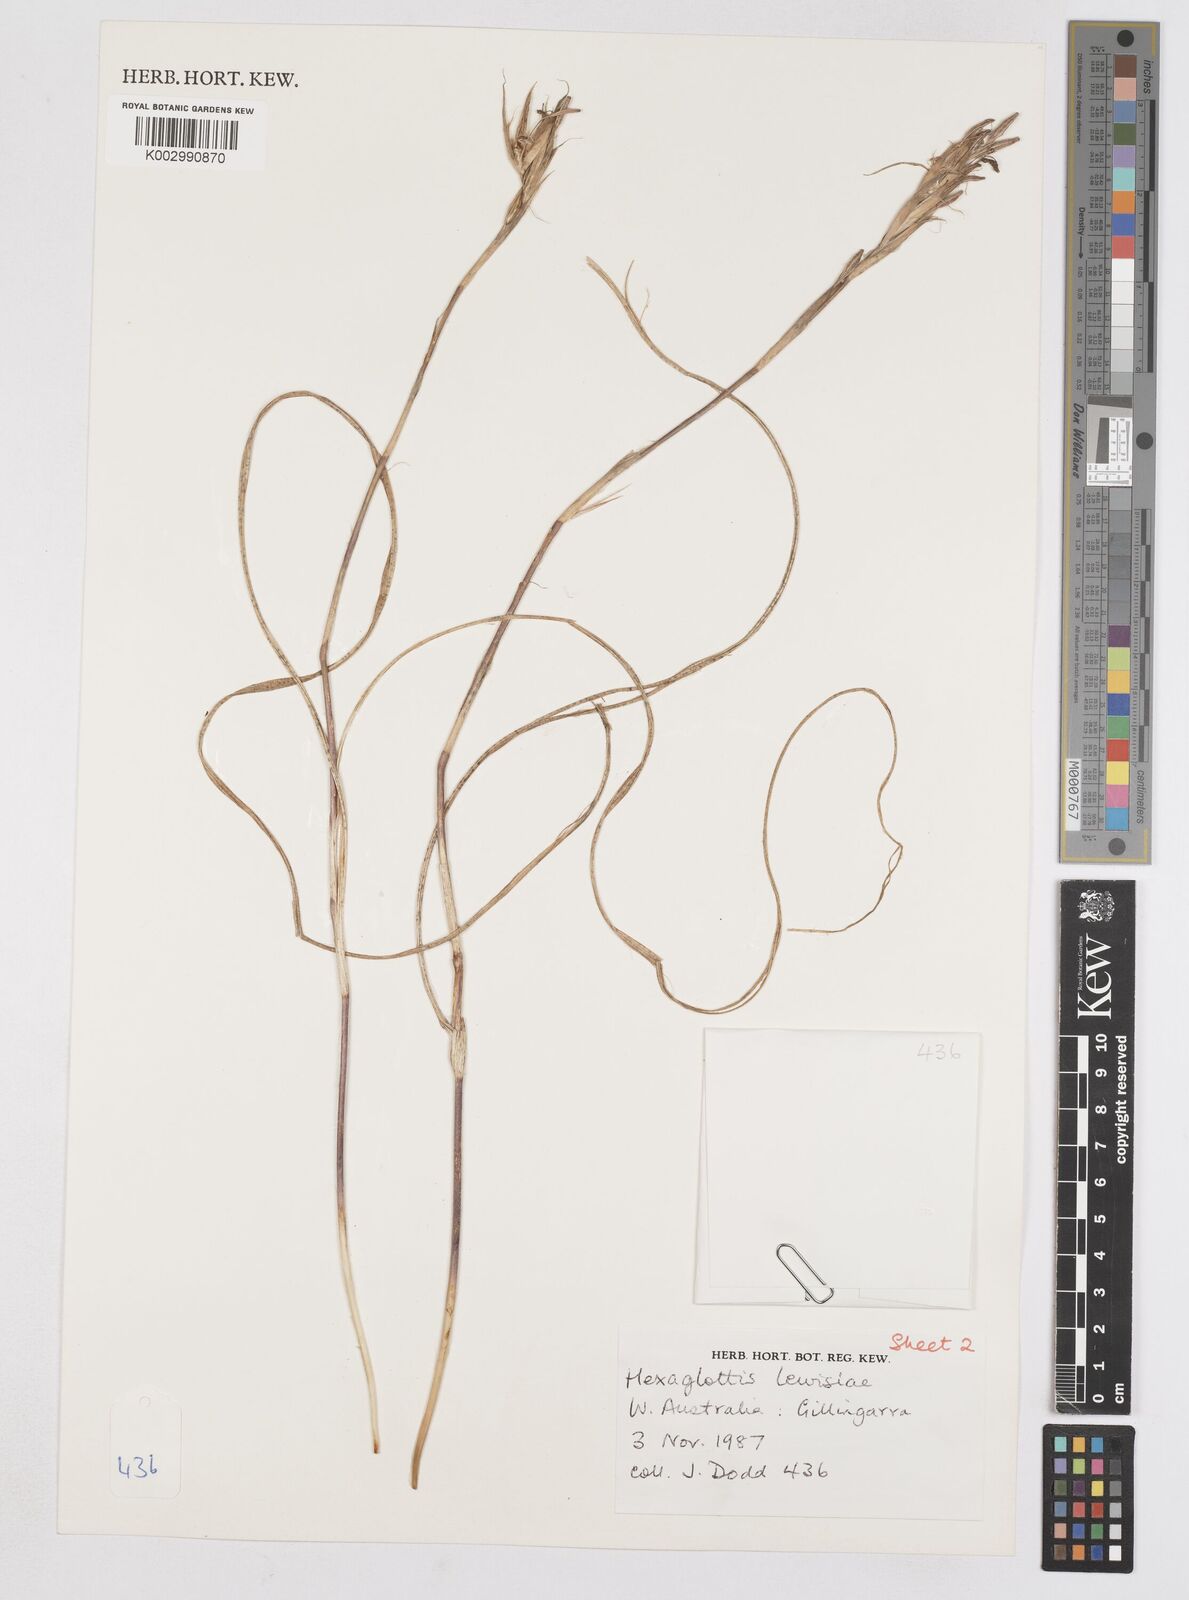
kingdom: Plantae
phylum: Tracheophyta
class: Liliopsida
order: Asparagales
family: Iridaceae
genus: Moraea
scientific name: Moraea lewisiae
